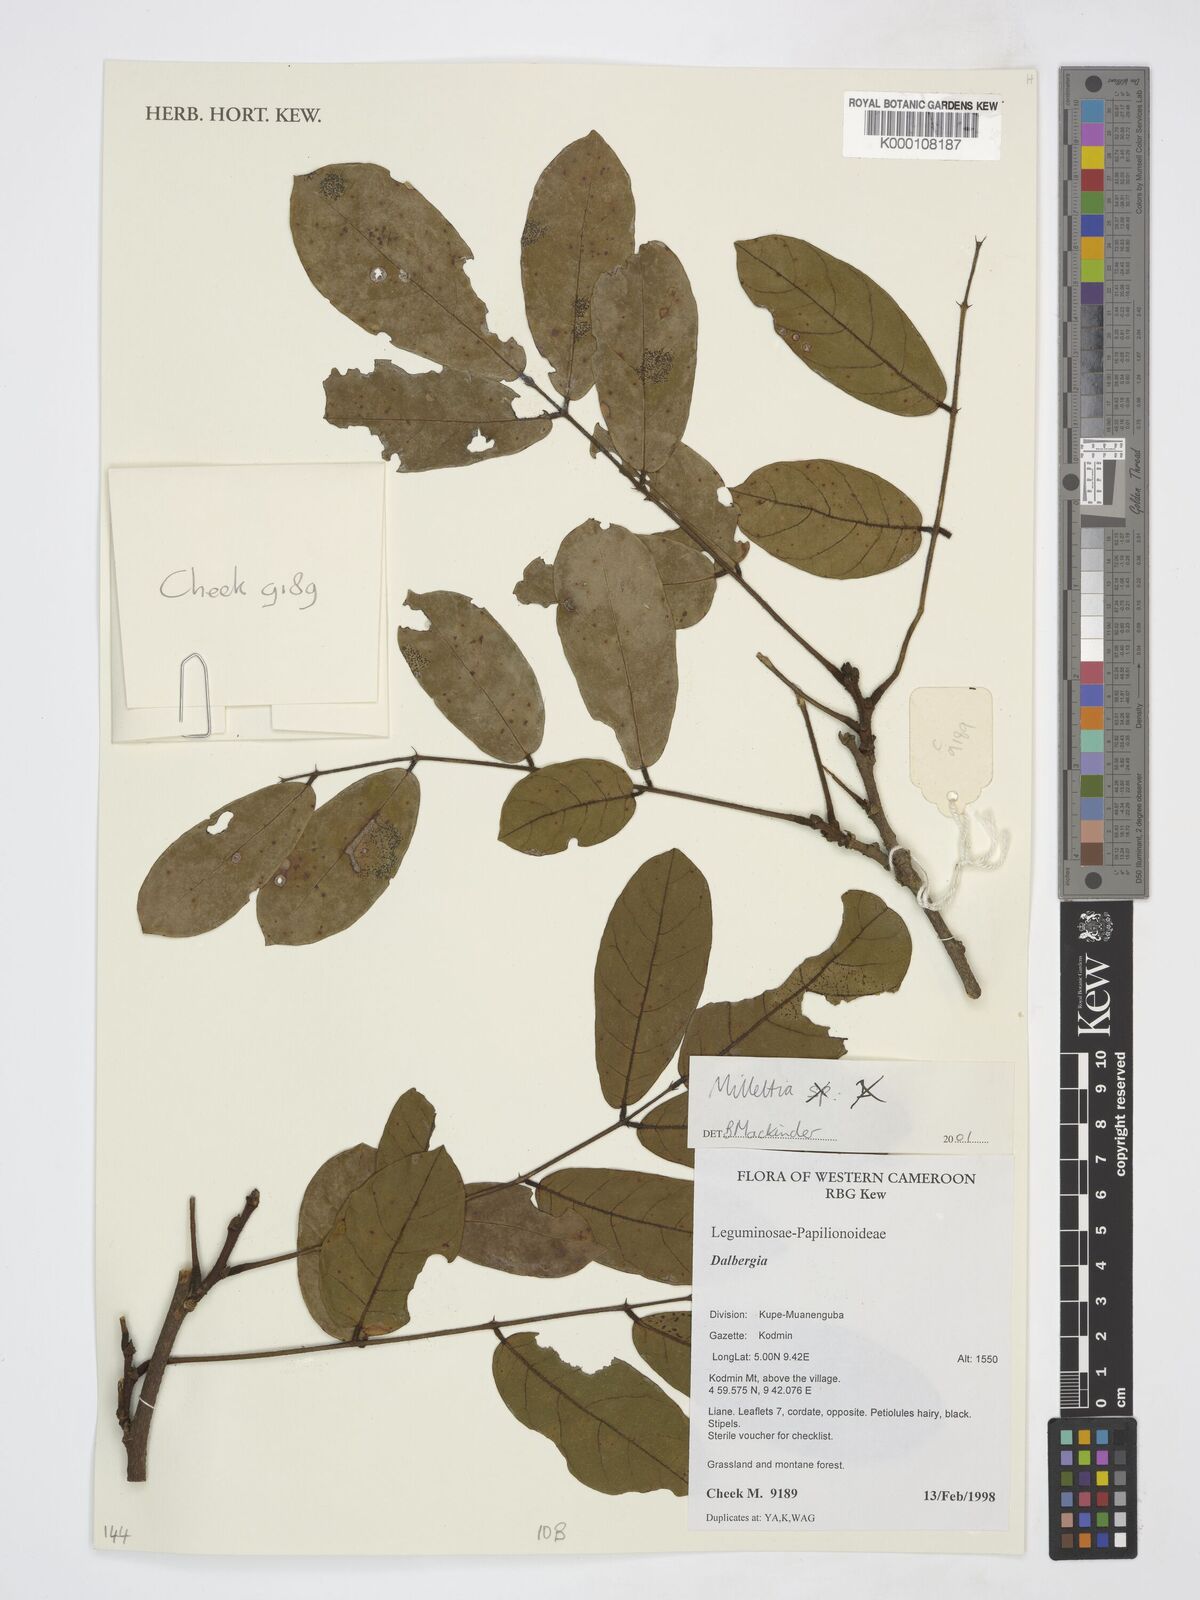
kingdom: Plantae
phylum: Tracheophyta
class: Magnoliopsida
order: Fabales
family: Fabaceae
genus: Millettia
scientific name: Millettia
